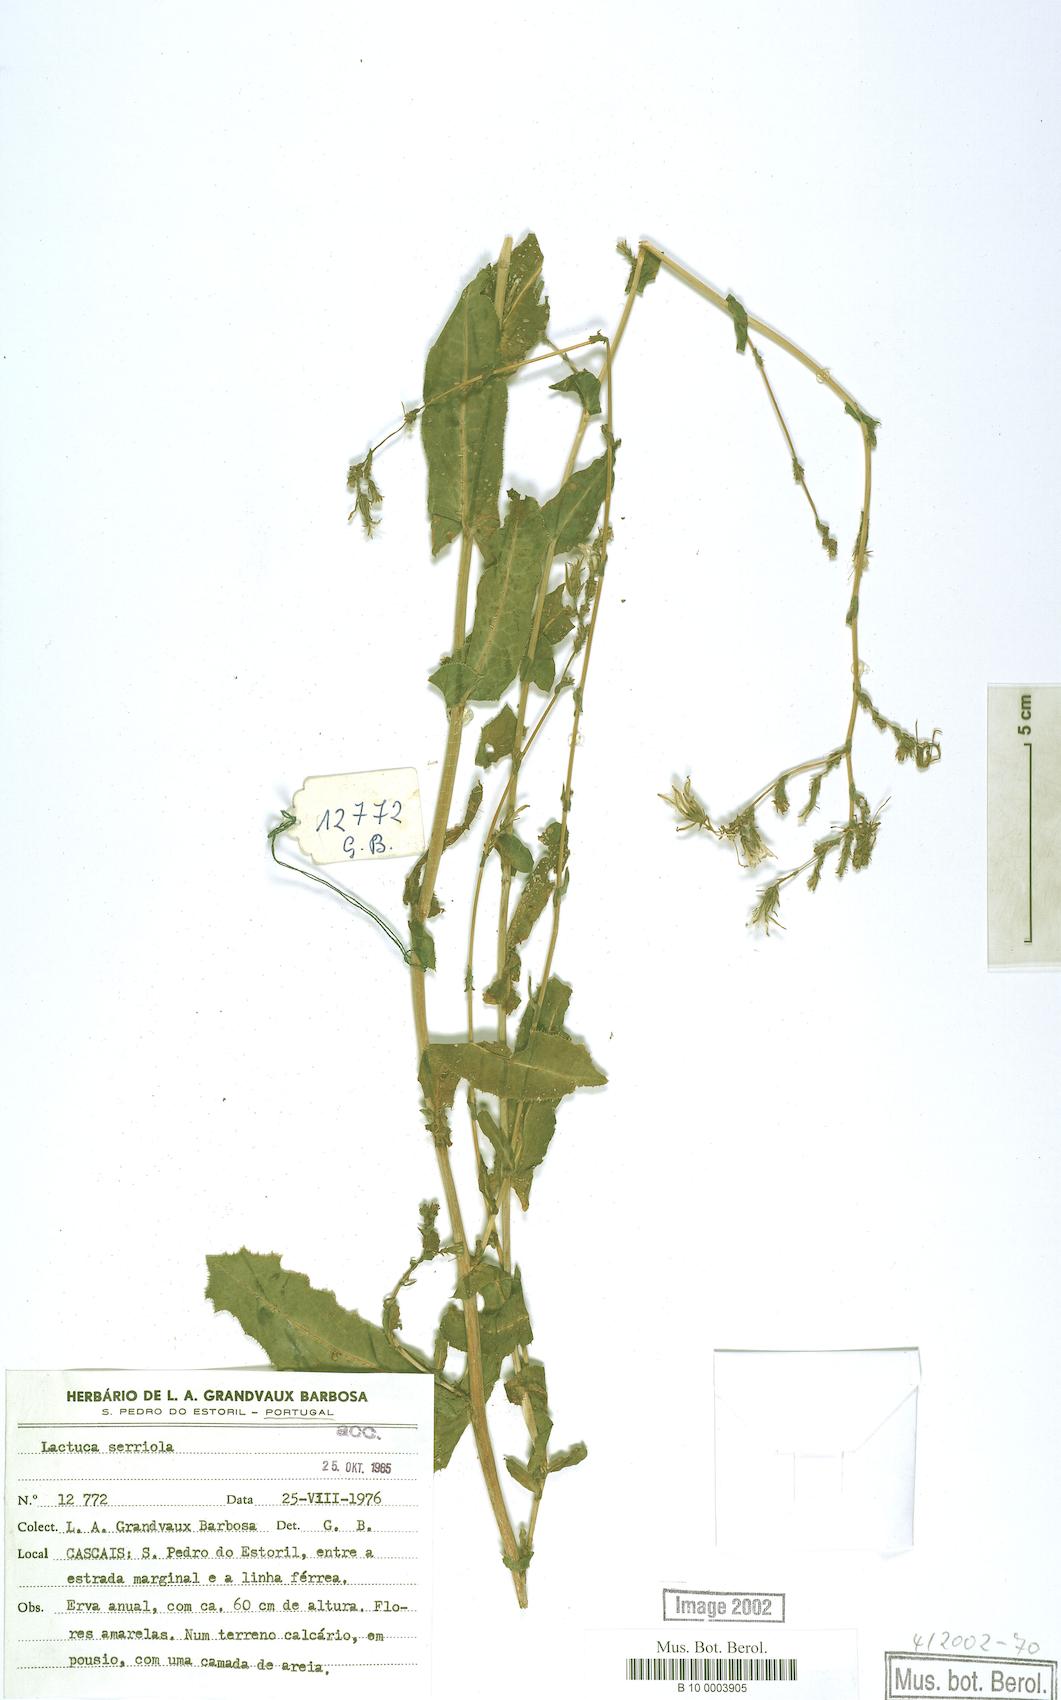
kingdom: Plantae
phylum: Tracheophyta
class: Magnoliopsida
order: Asterales
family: Asteraceae
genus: Lactuca
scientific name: Lactuca serriola
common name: Prickly lettuce
